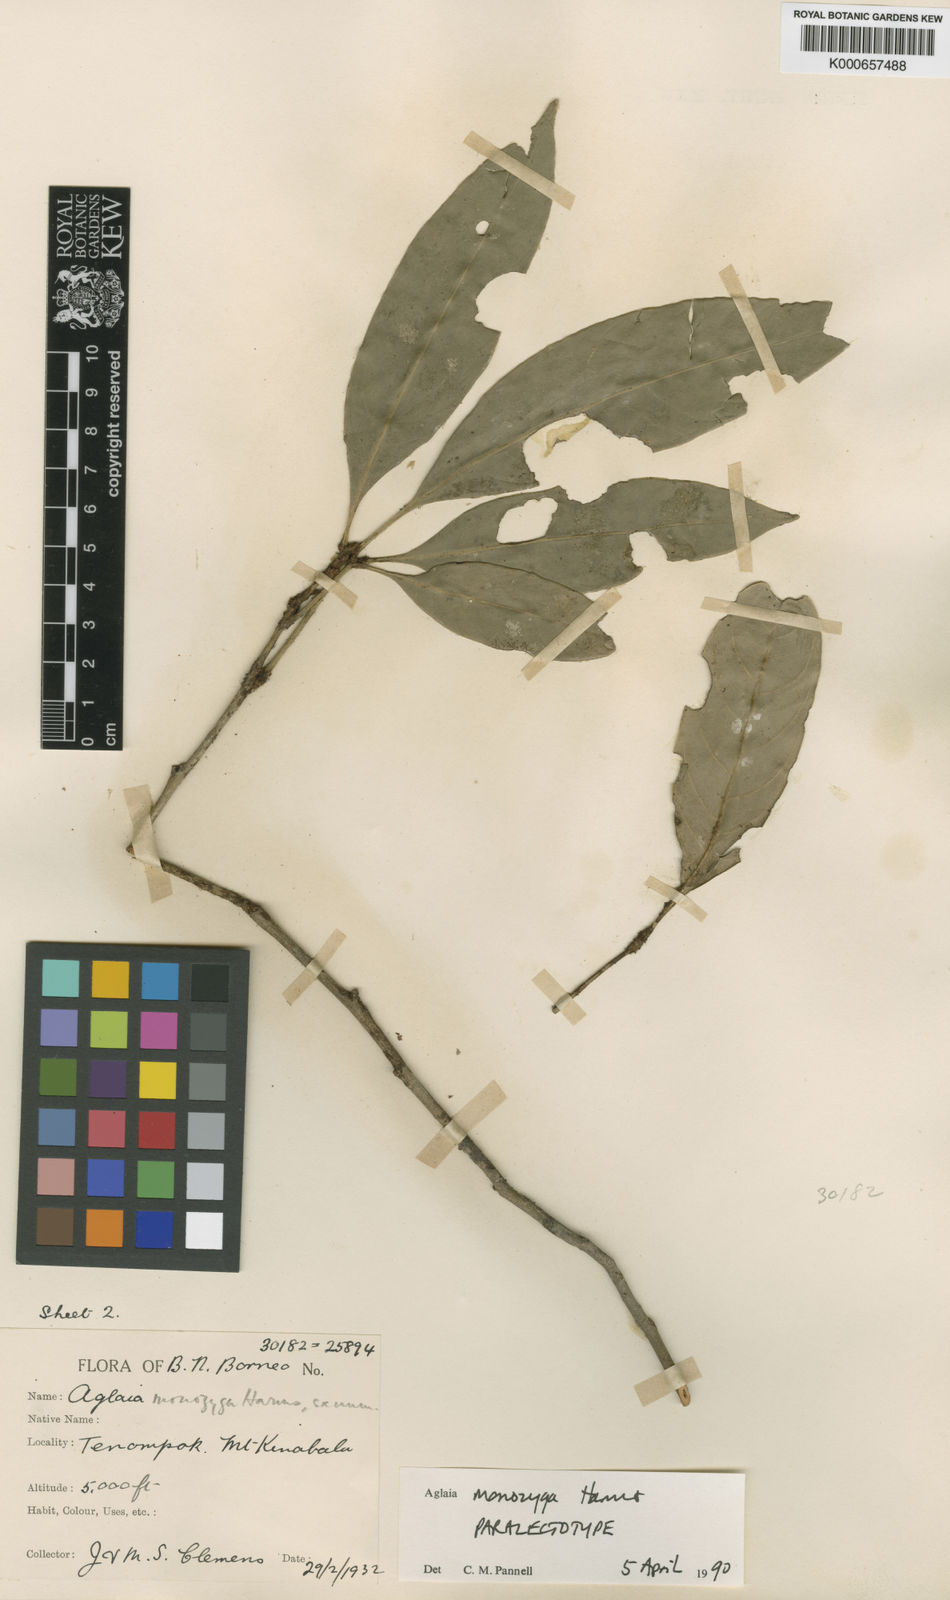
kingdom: Plantae
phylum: Tracheophyta
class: Magnoliopsida
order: Sapindales
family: Meliaceae
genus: Aglaia
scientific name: Aglaia monozyga
